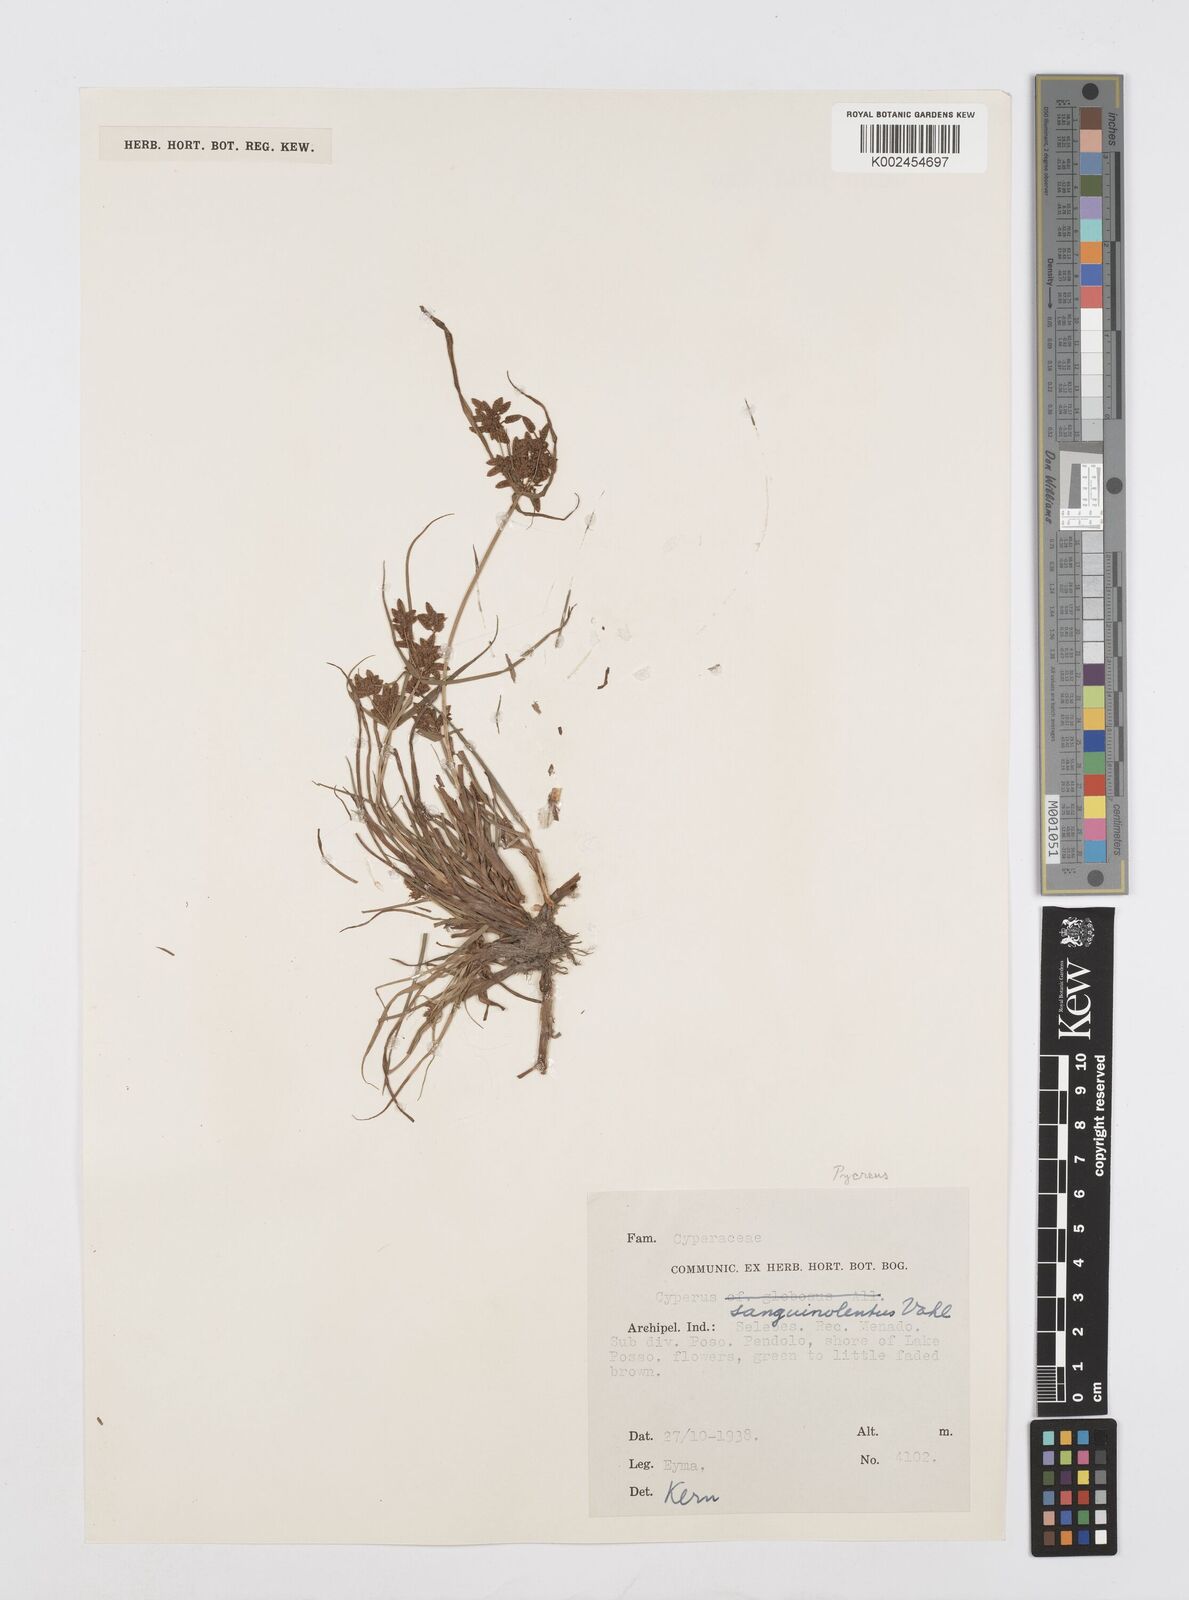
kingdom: Plantae
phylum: Tracheophyta
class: Liliopsida
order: Poales
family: Cyperaceae
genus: Cyperus
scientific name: Cyperus sanguinolentus
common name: Purpleglume flatsedge
